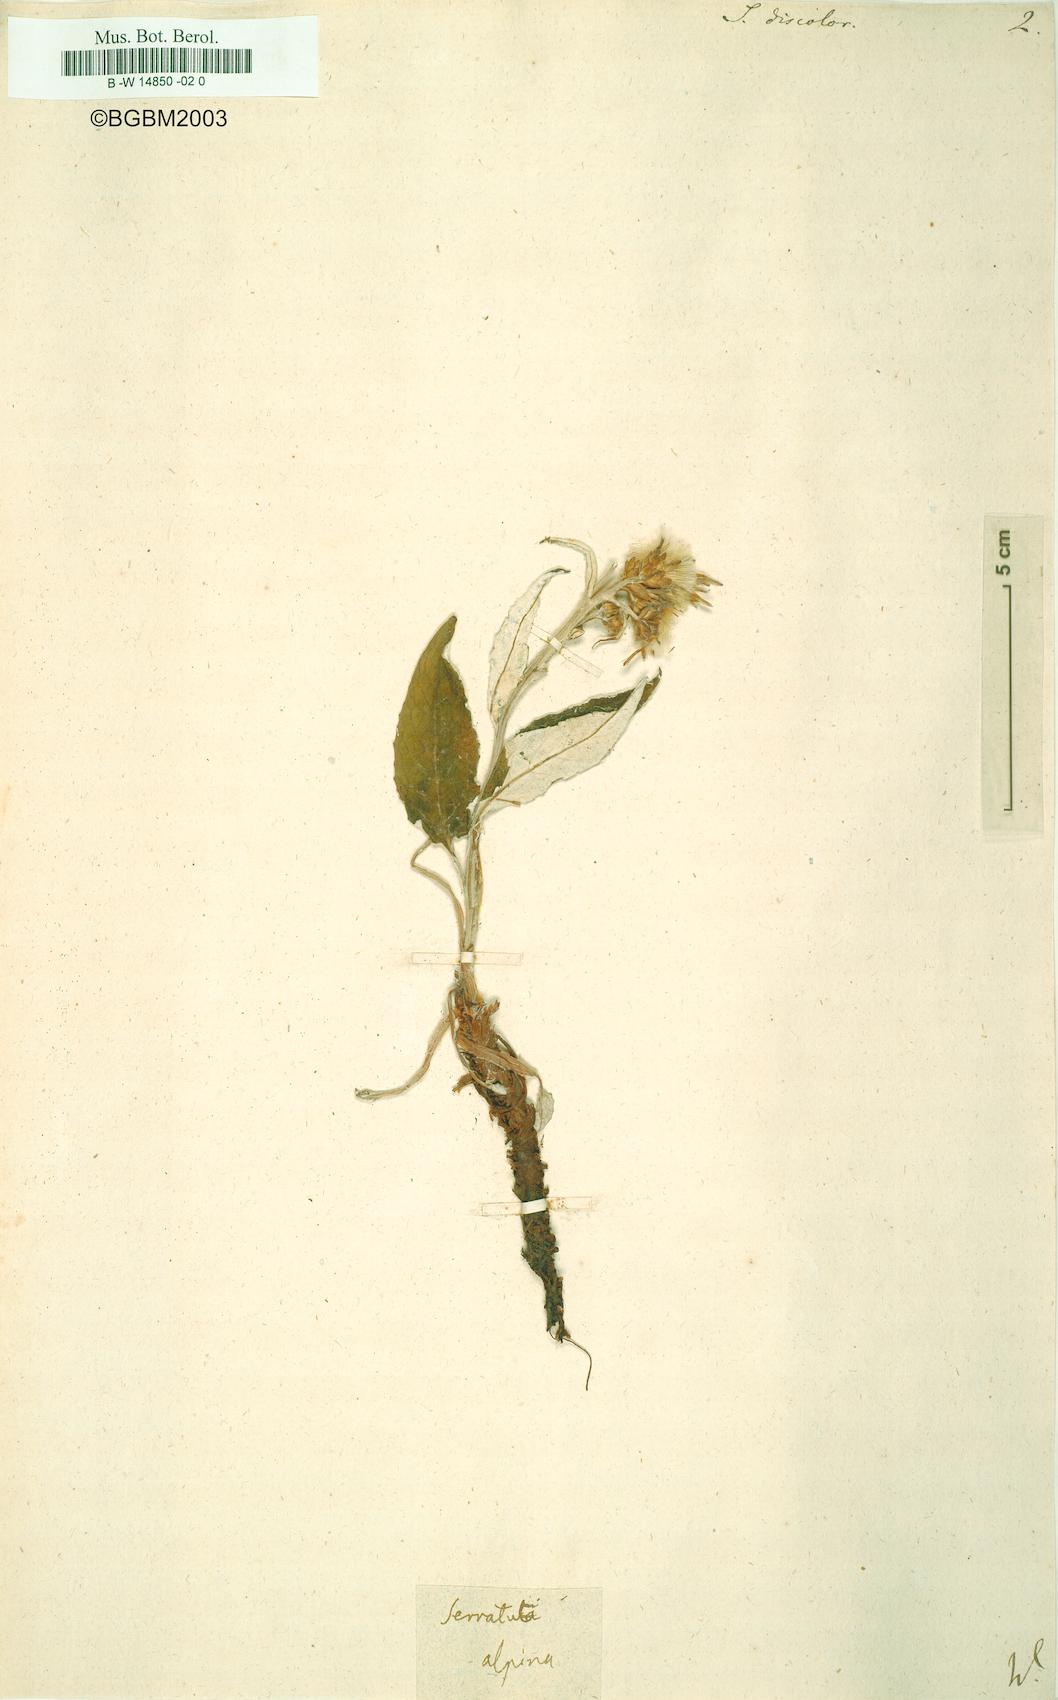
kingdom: Plantae
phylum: Tracheophyta
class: Magnoliopsida
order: Asterales
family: Asteraceae
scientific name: Asteraceae
